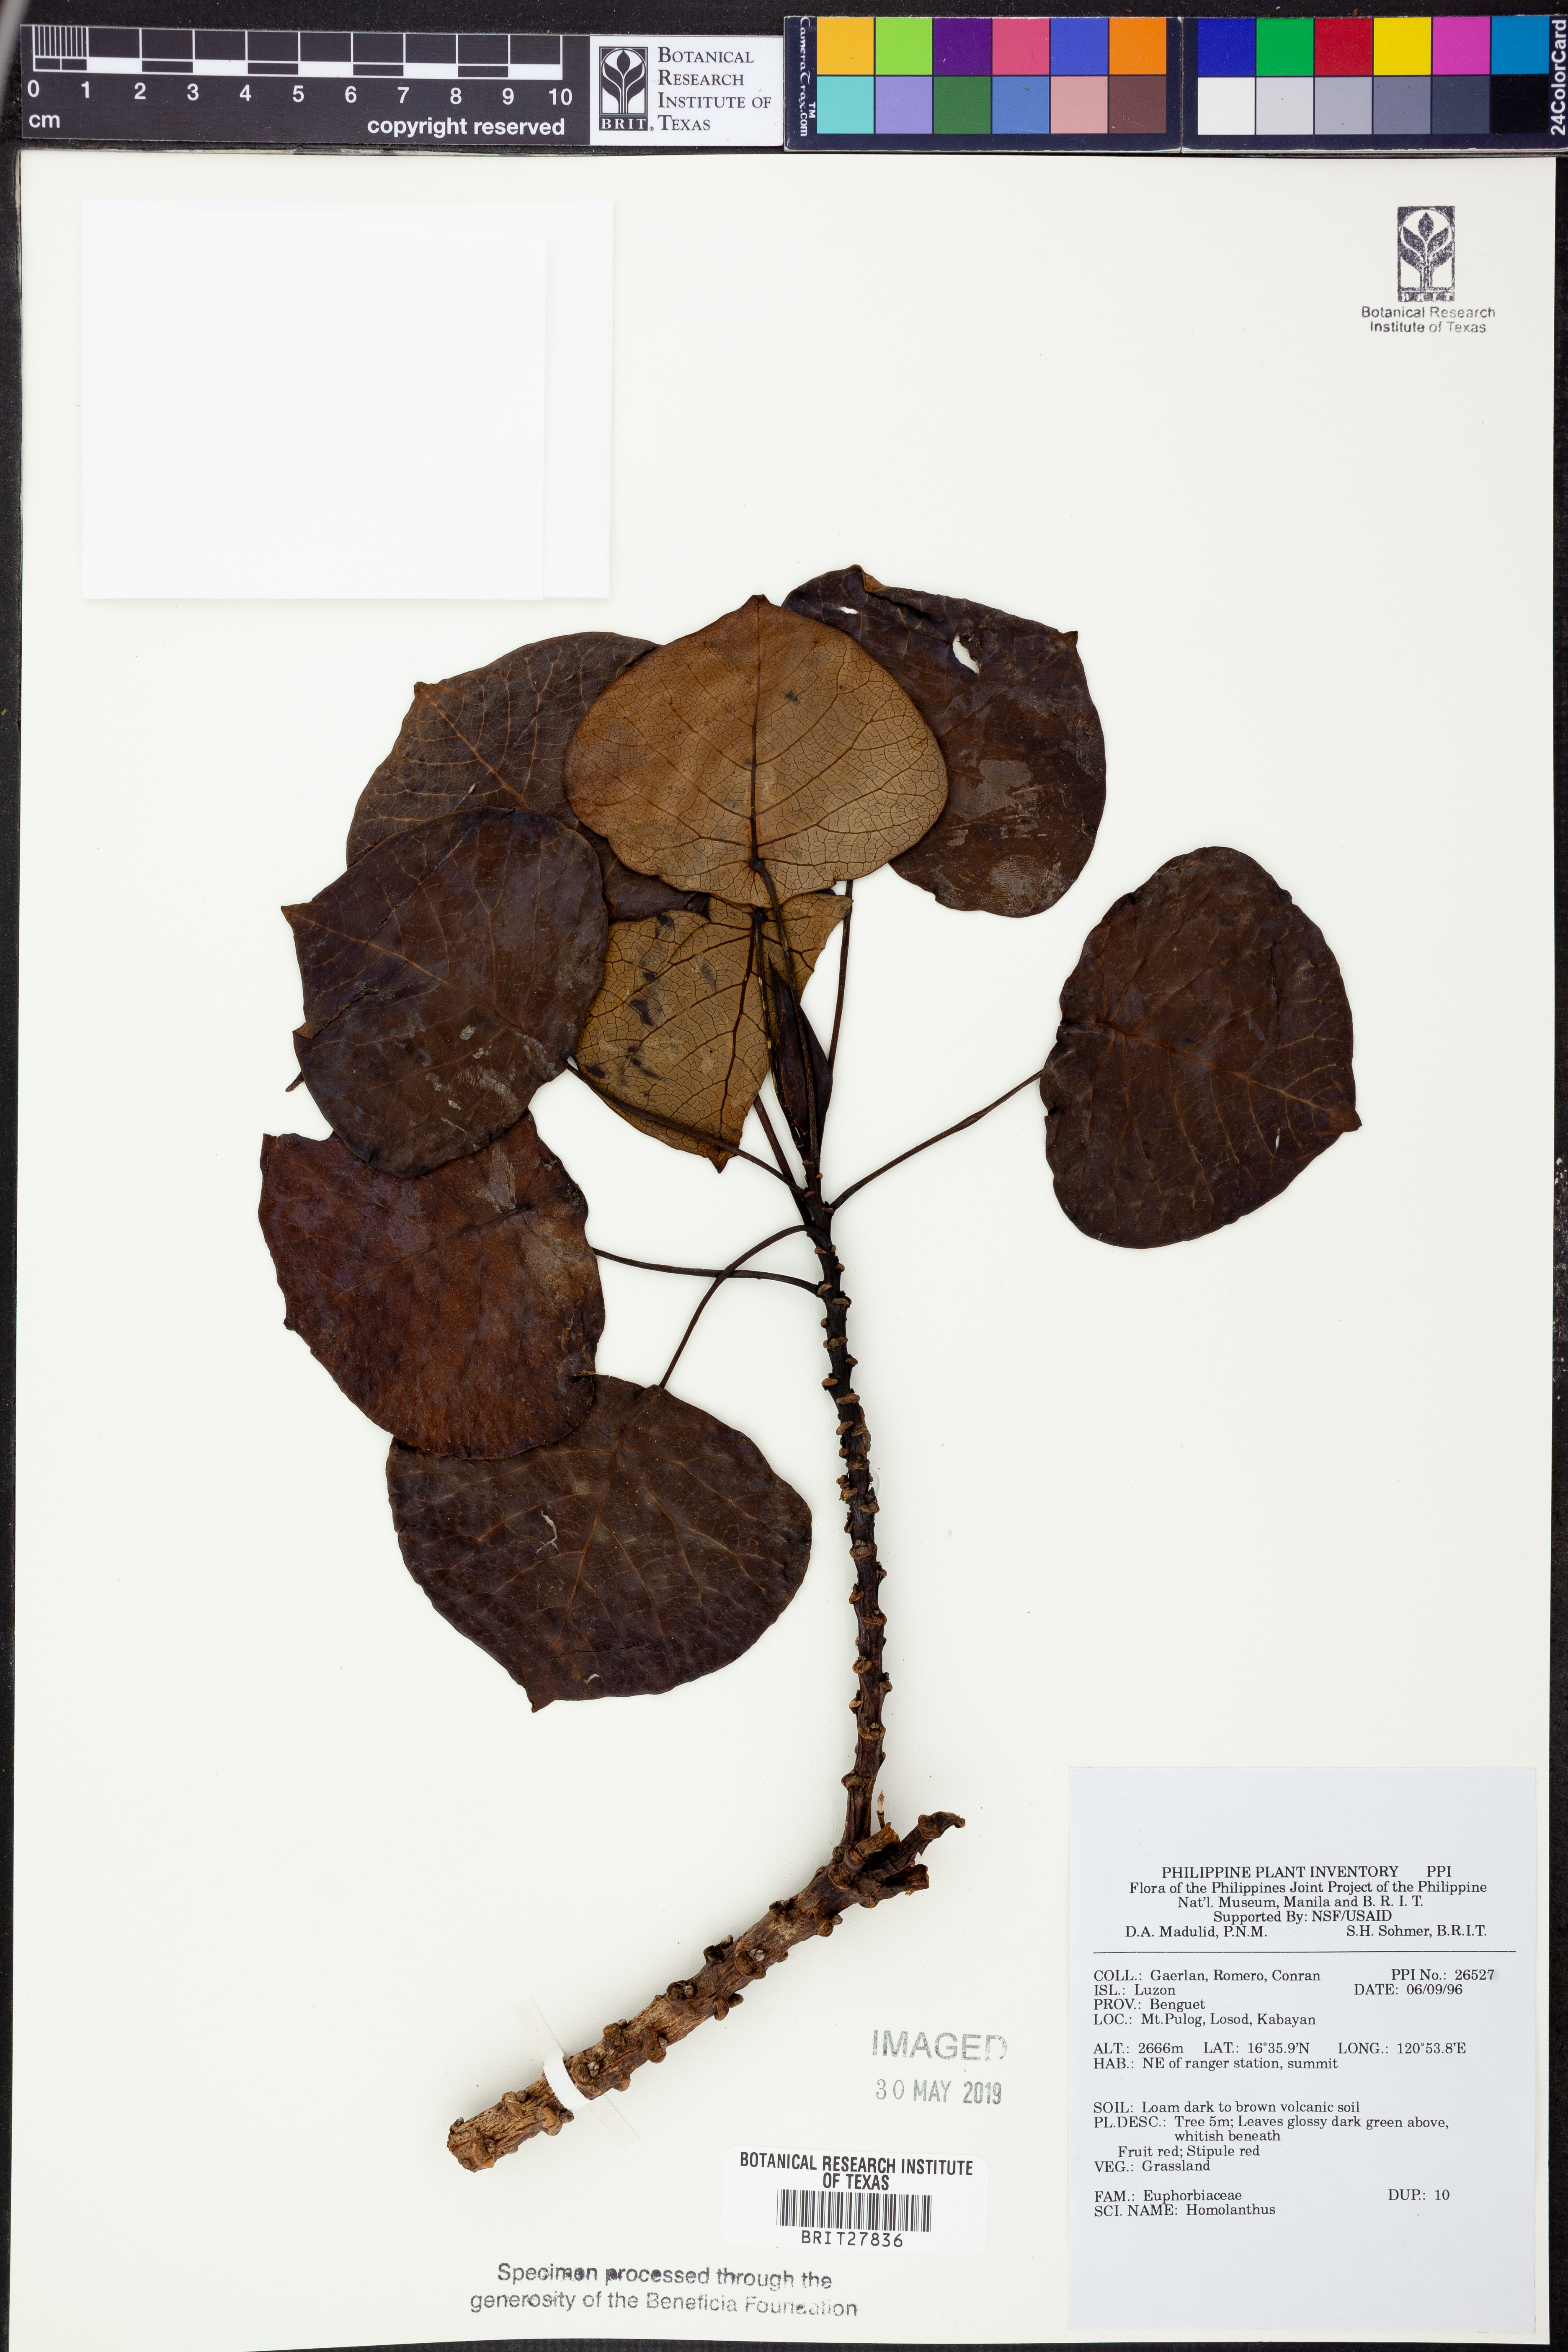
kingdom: Plantae
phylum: Tracheophyta
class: Magnoliopsida
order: Malpighiales
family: Euphorbiaceae
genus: Homalanthus
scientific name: Homalanthus
